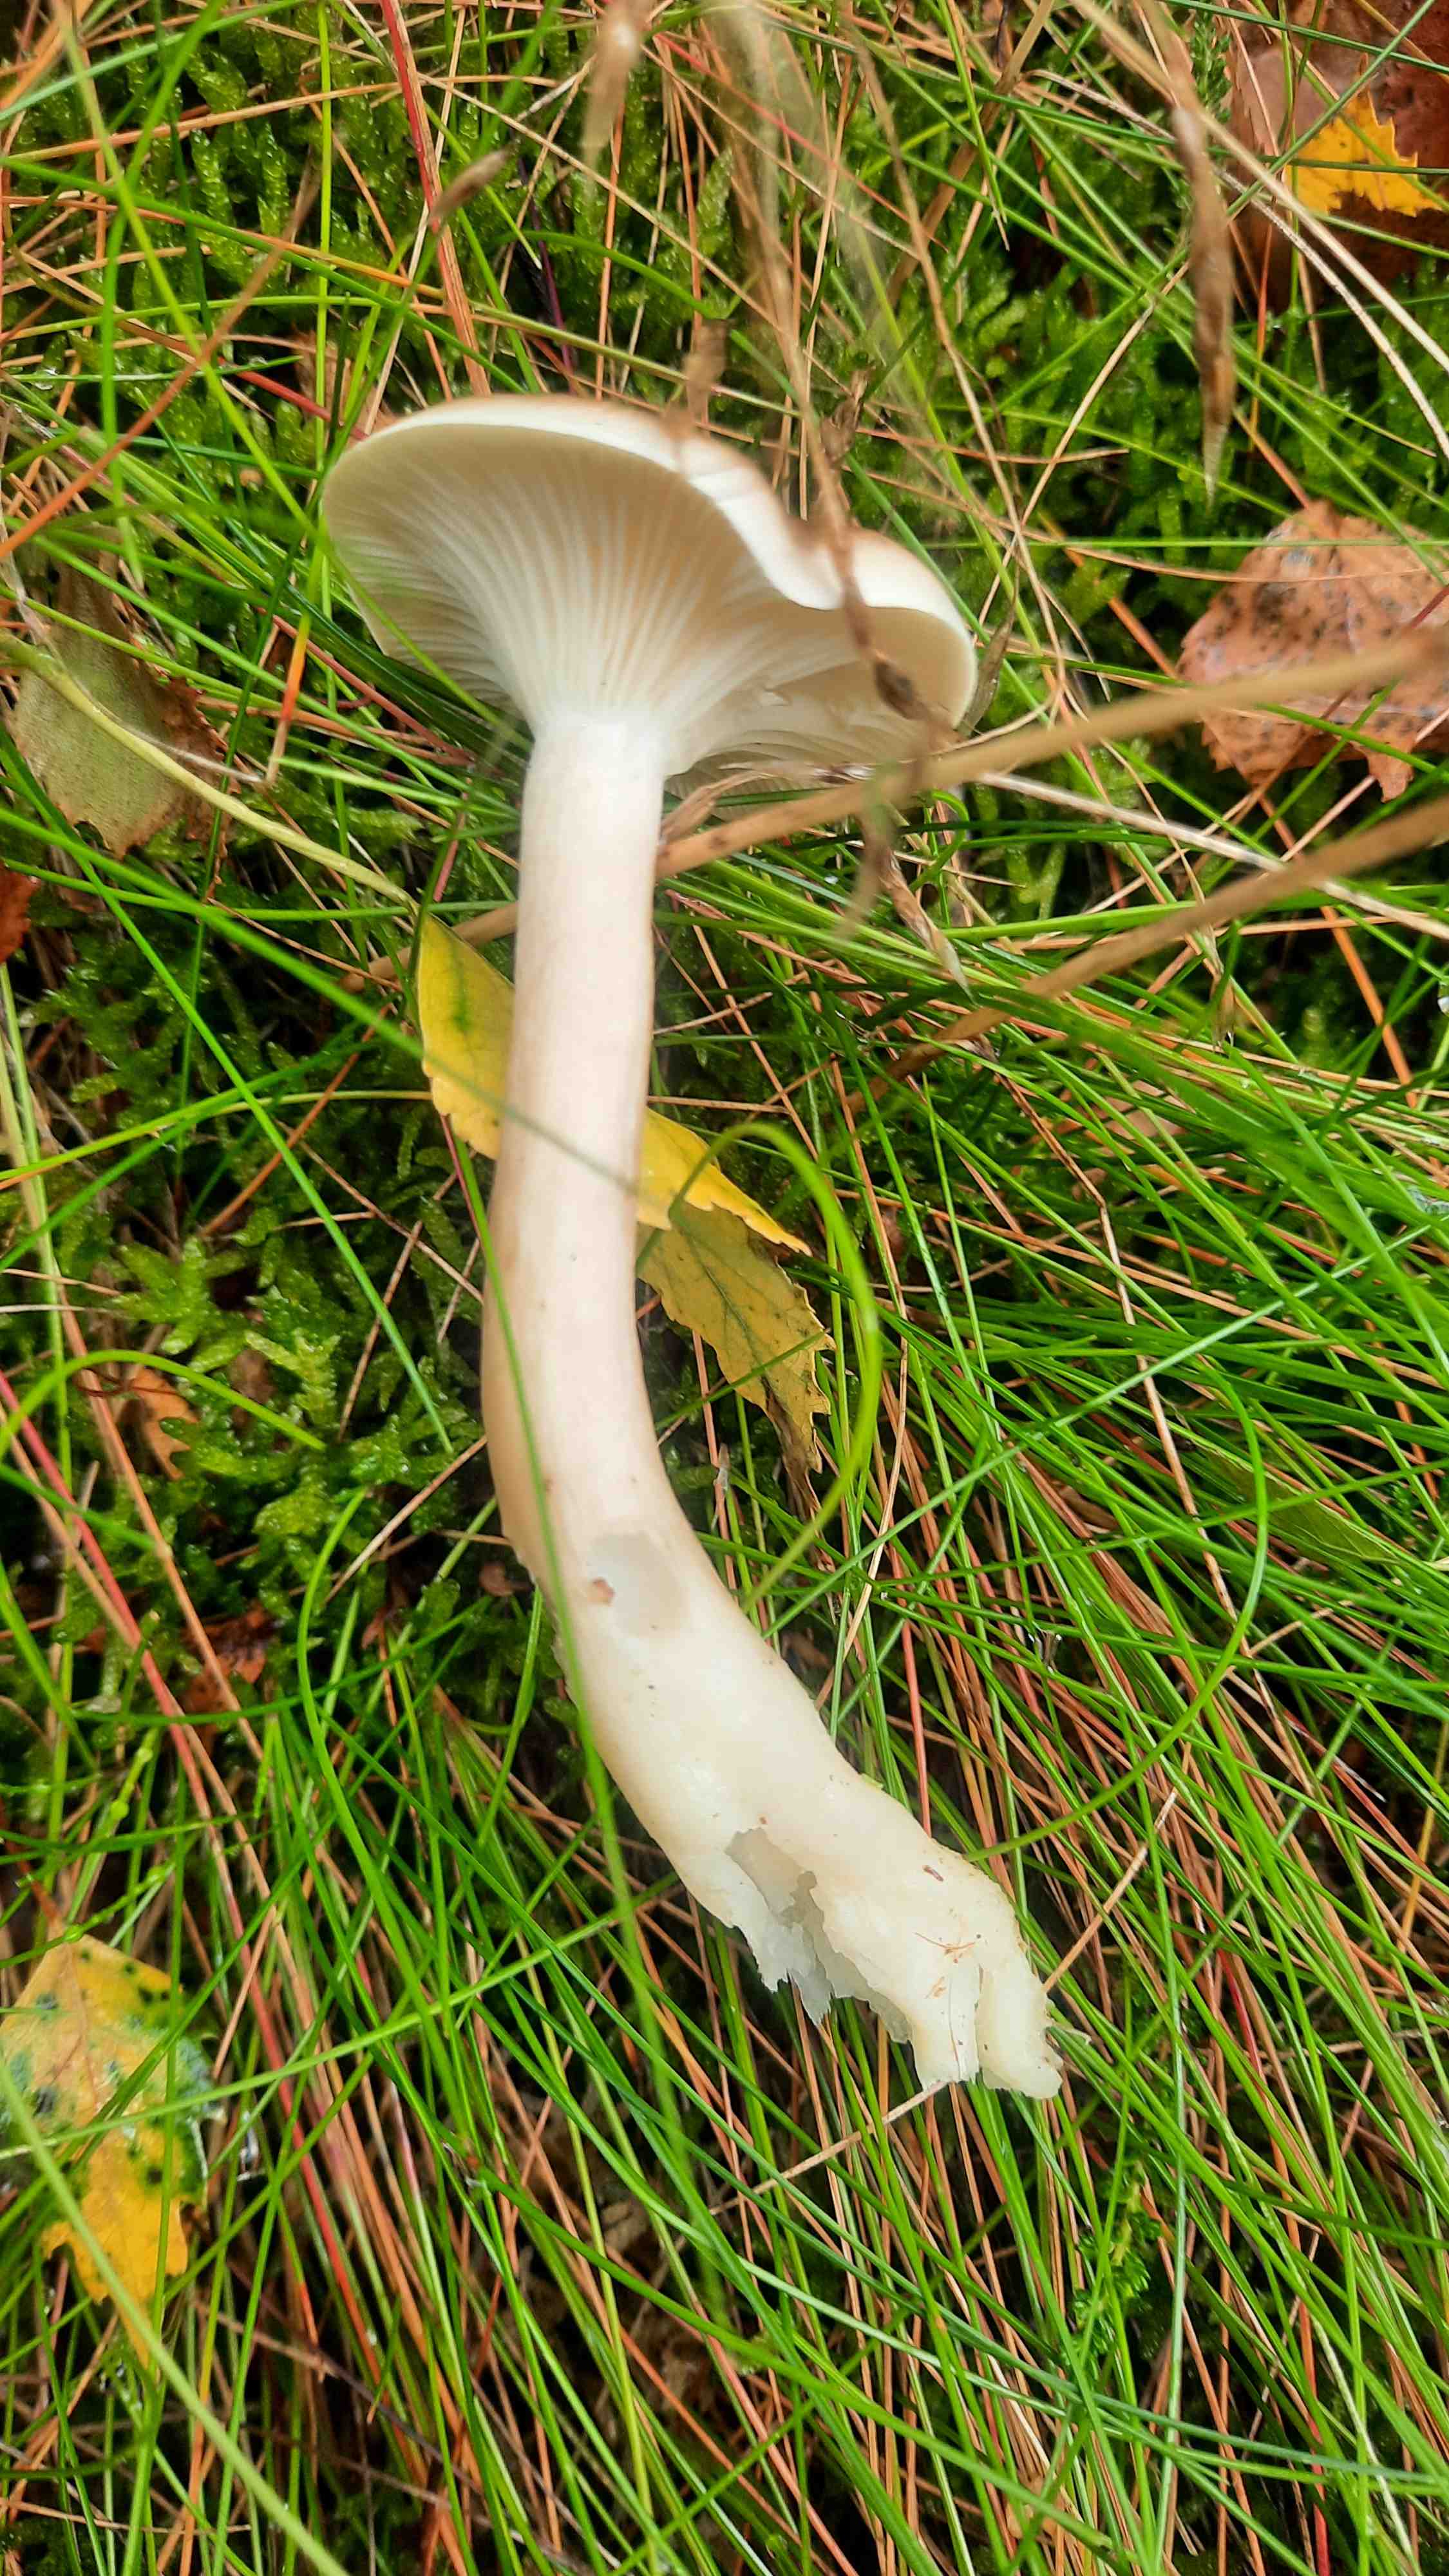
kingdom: Fungi
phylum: Basidiomycota
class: Agaricomycetes
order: Agaricales
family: Hygrophoraceae
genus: Ampulloclitocybe
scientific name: Ampulloclitocybe clavipes
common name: køllefod
